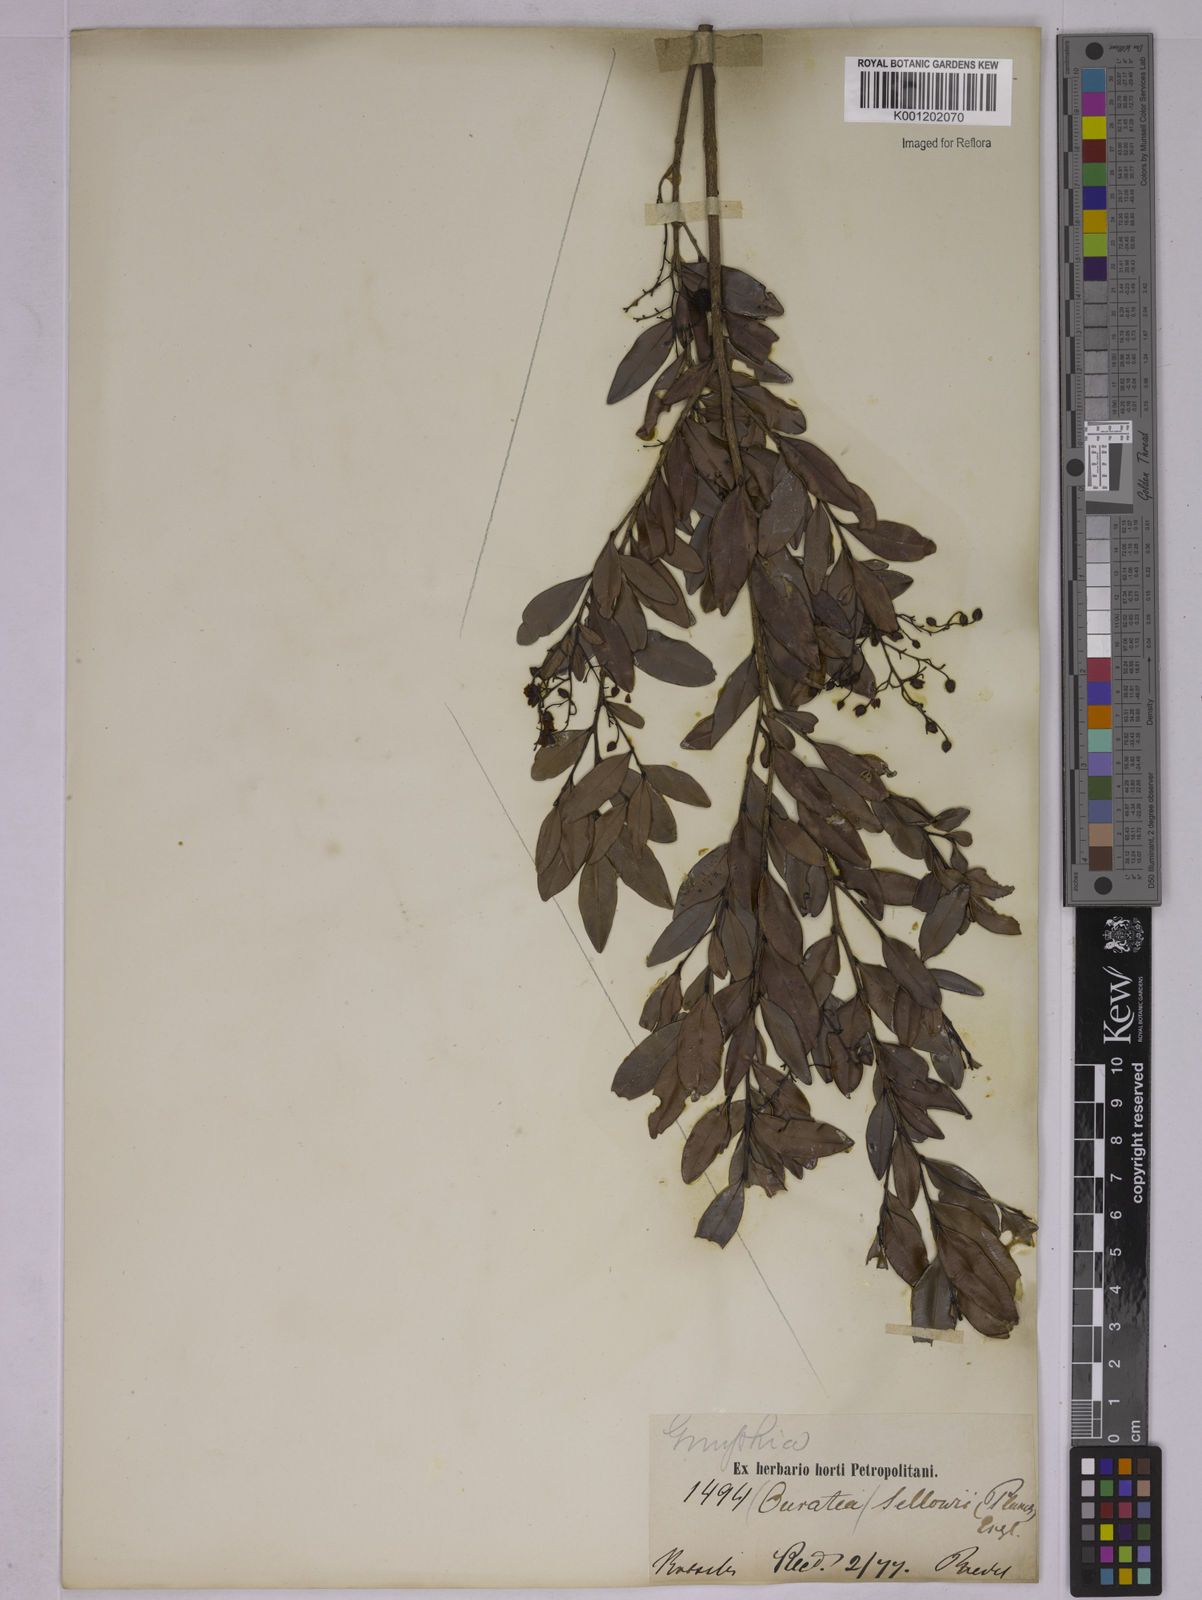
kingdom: Plantae
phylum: Tracheophyta
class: Magnoliopsida
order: Malpighiales
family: Ochnaceae
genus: Ouratea
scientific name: Ouratea sellowii
